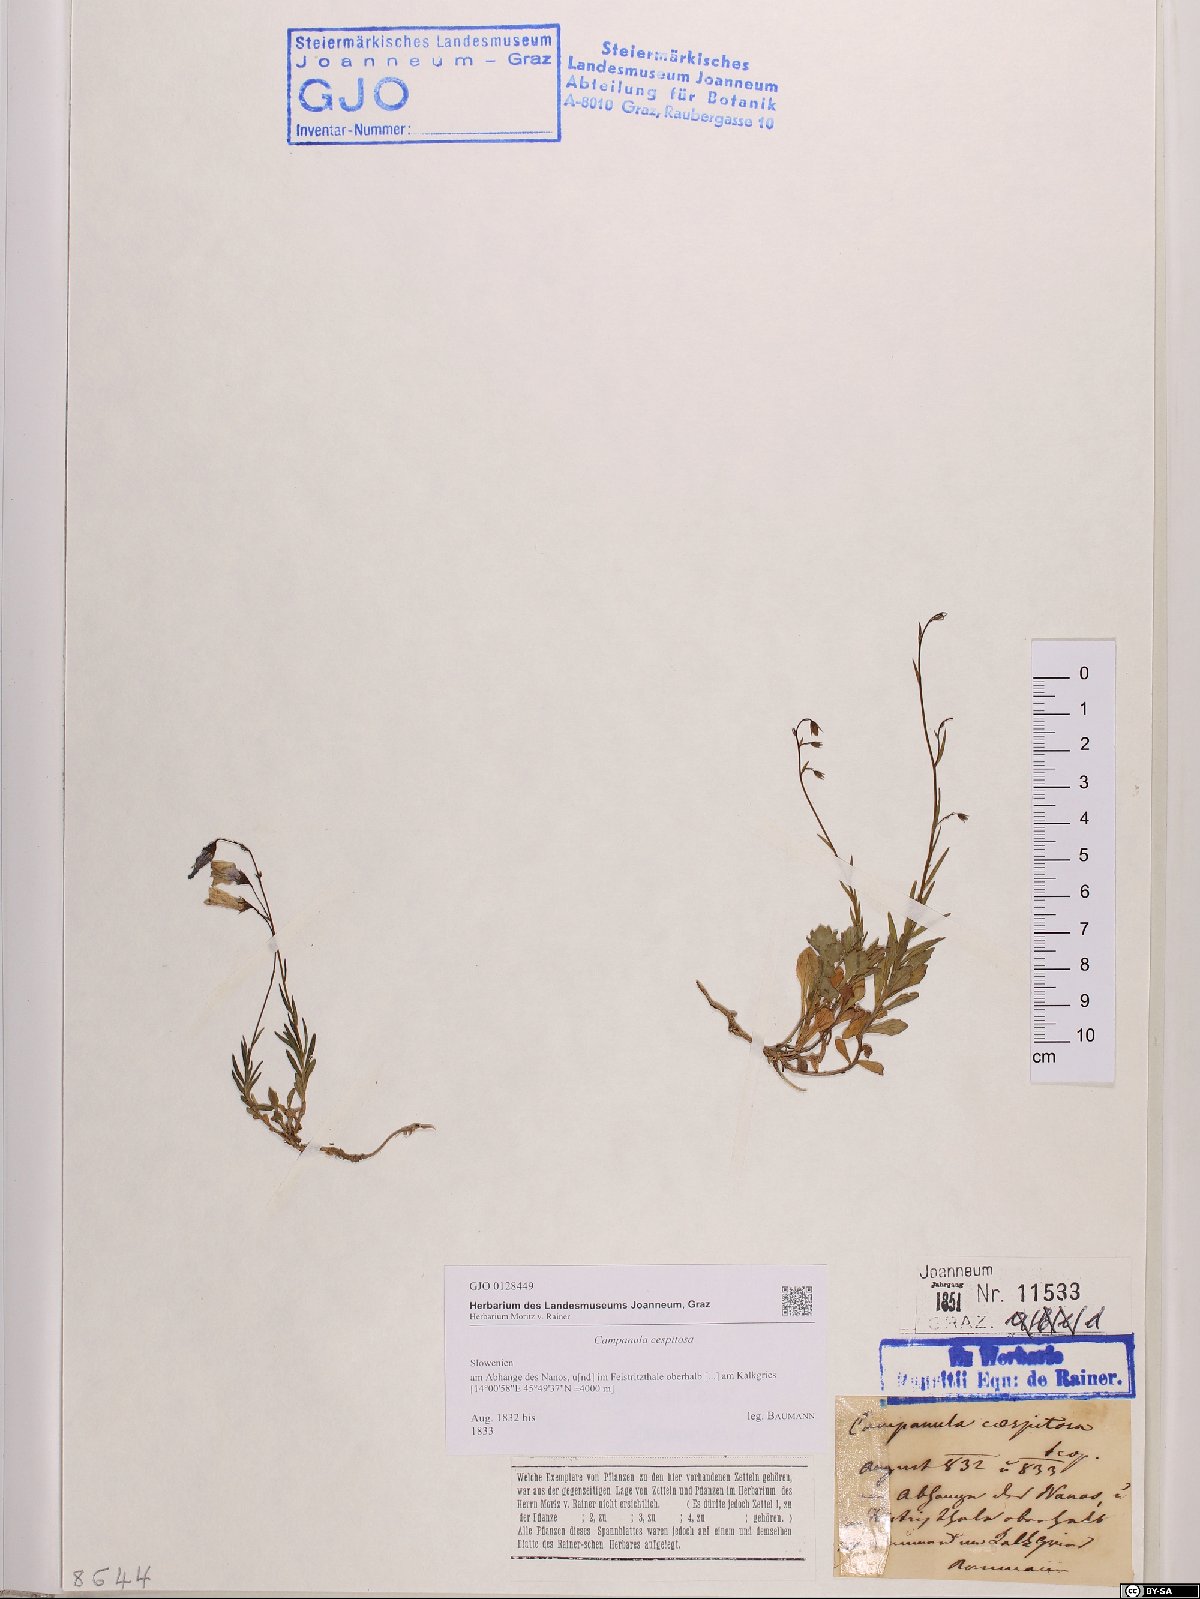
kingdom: Plantae
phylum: Tracheophyta
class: Magnoliopsida
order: Asterales
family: Campanulaceae
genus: Campanula
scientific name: Campanula cespitosa
